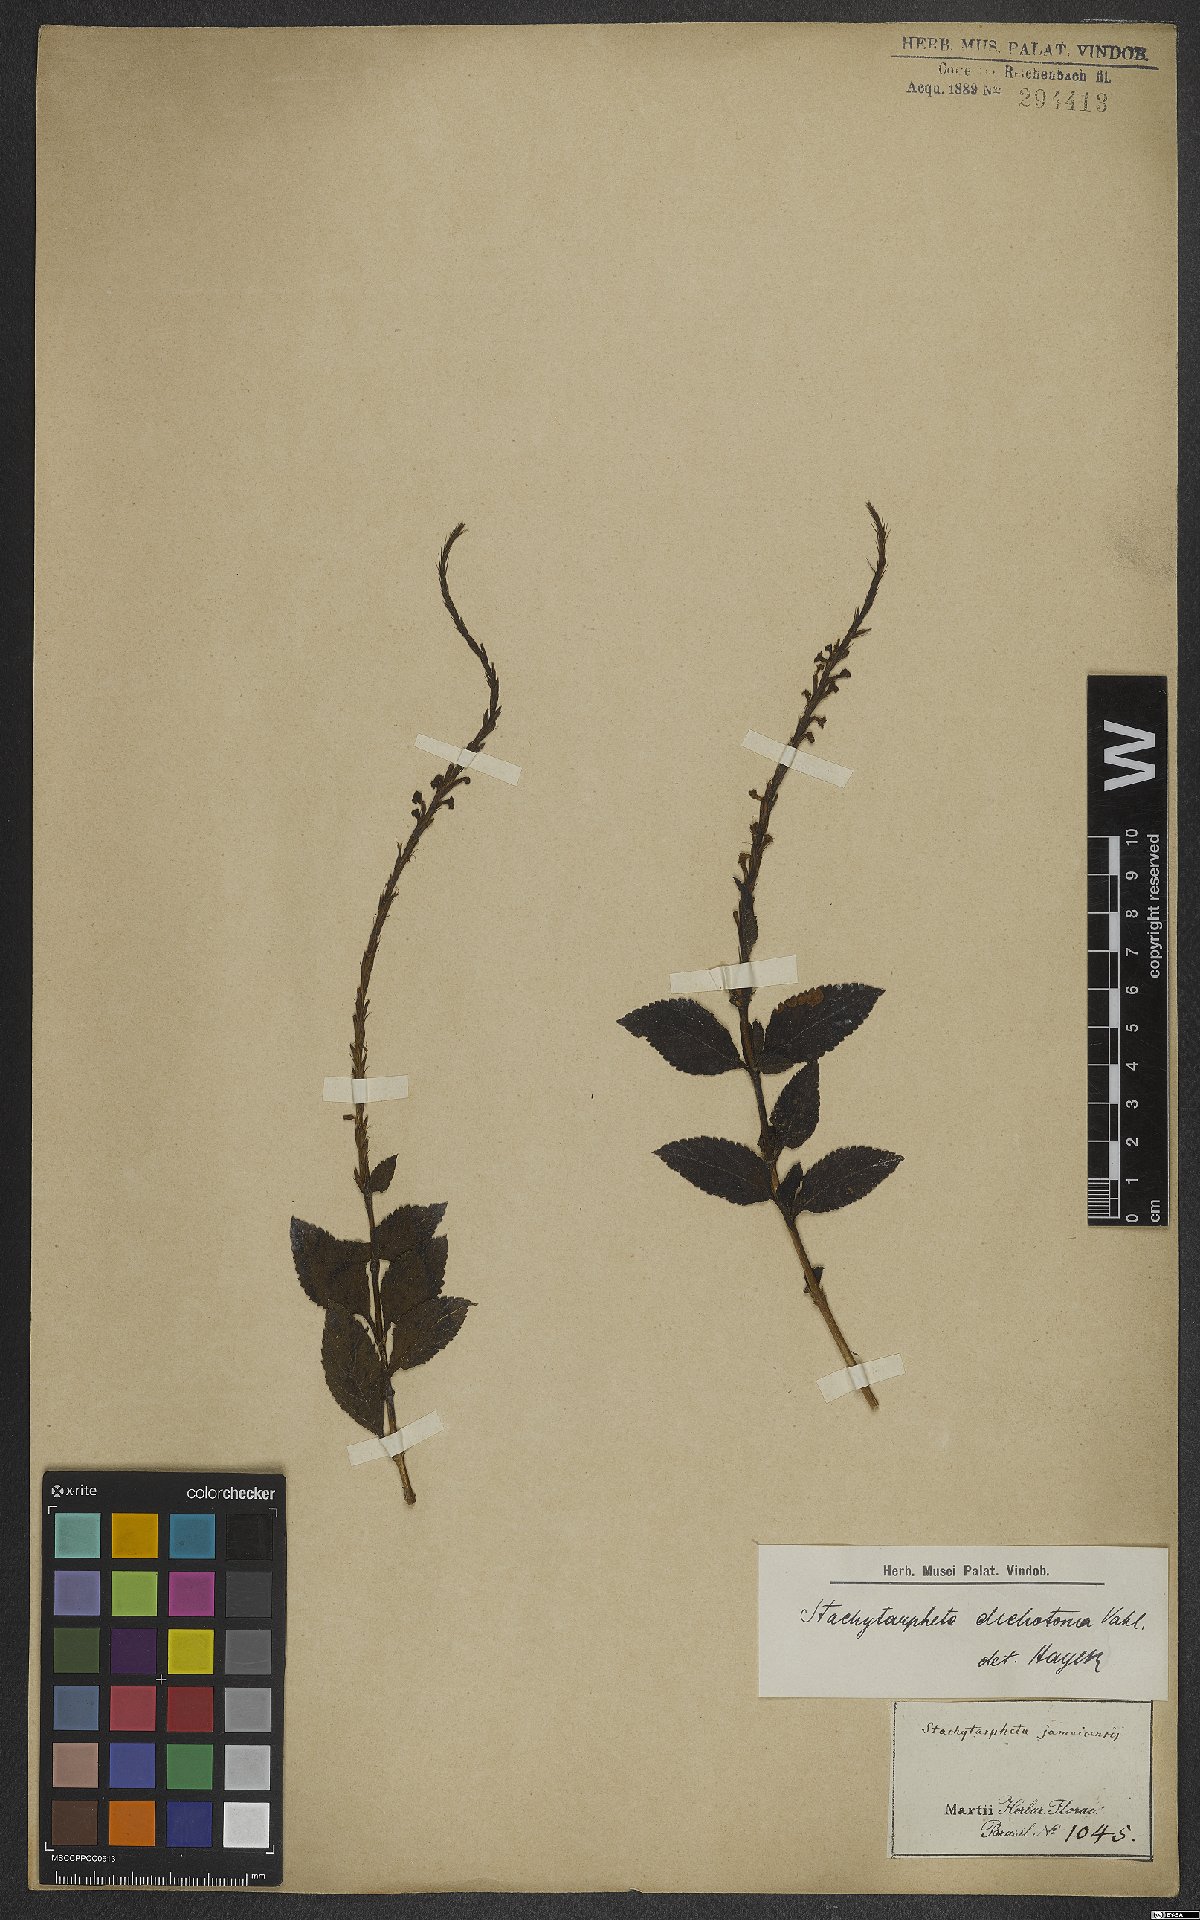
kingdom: Plantae
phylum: Tracheophyta
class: Magnoliopsida
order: Lamiales
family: Verbenaceae
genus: Stachytarpheta
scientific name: Stachytarpheta cayennensis
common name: Cayenne porterweed
